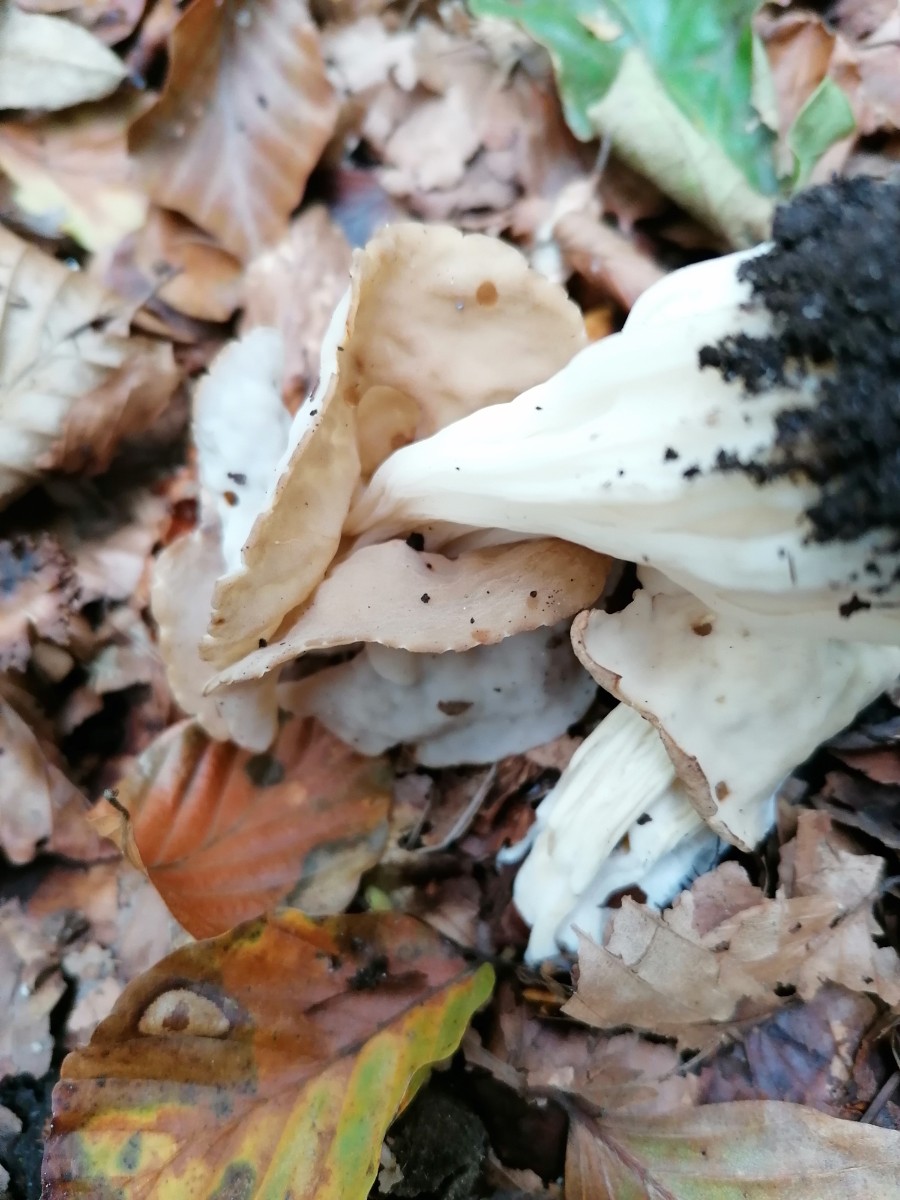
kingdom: Fungi
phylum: Ascomycota
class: Pezizomycetes
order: Pezizales
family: Helvellaceae
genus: Helvella
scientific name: Helvella crispa
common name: kruset foldhat
